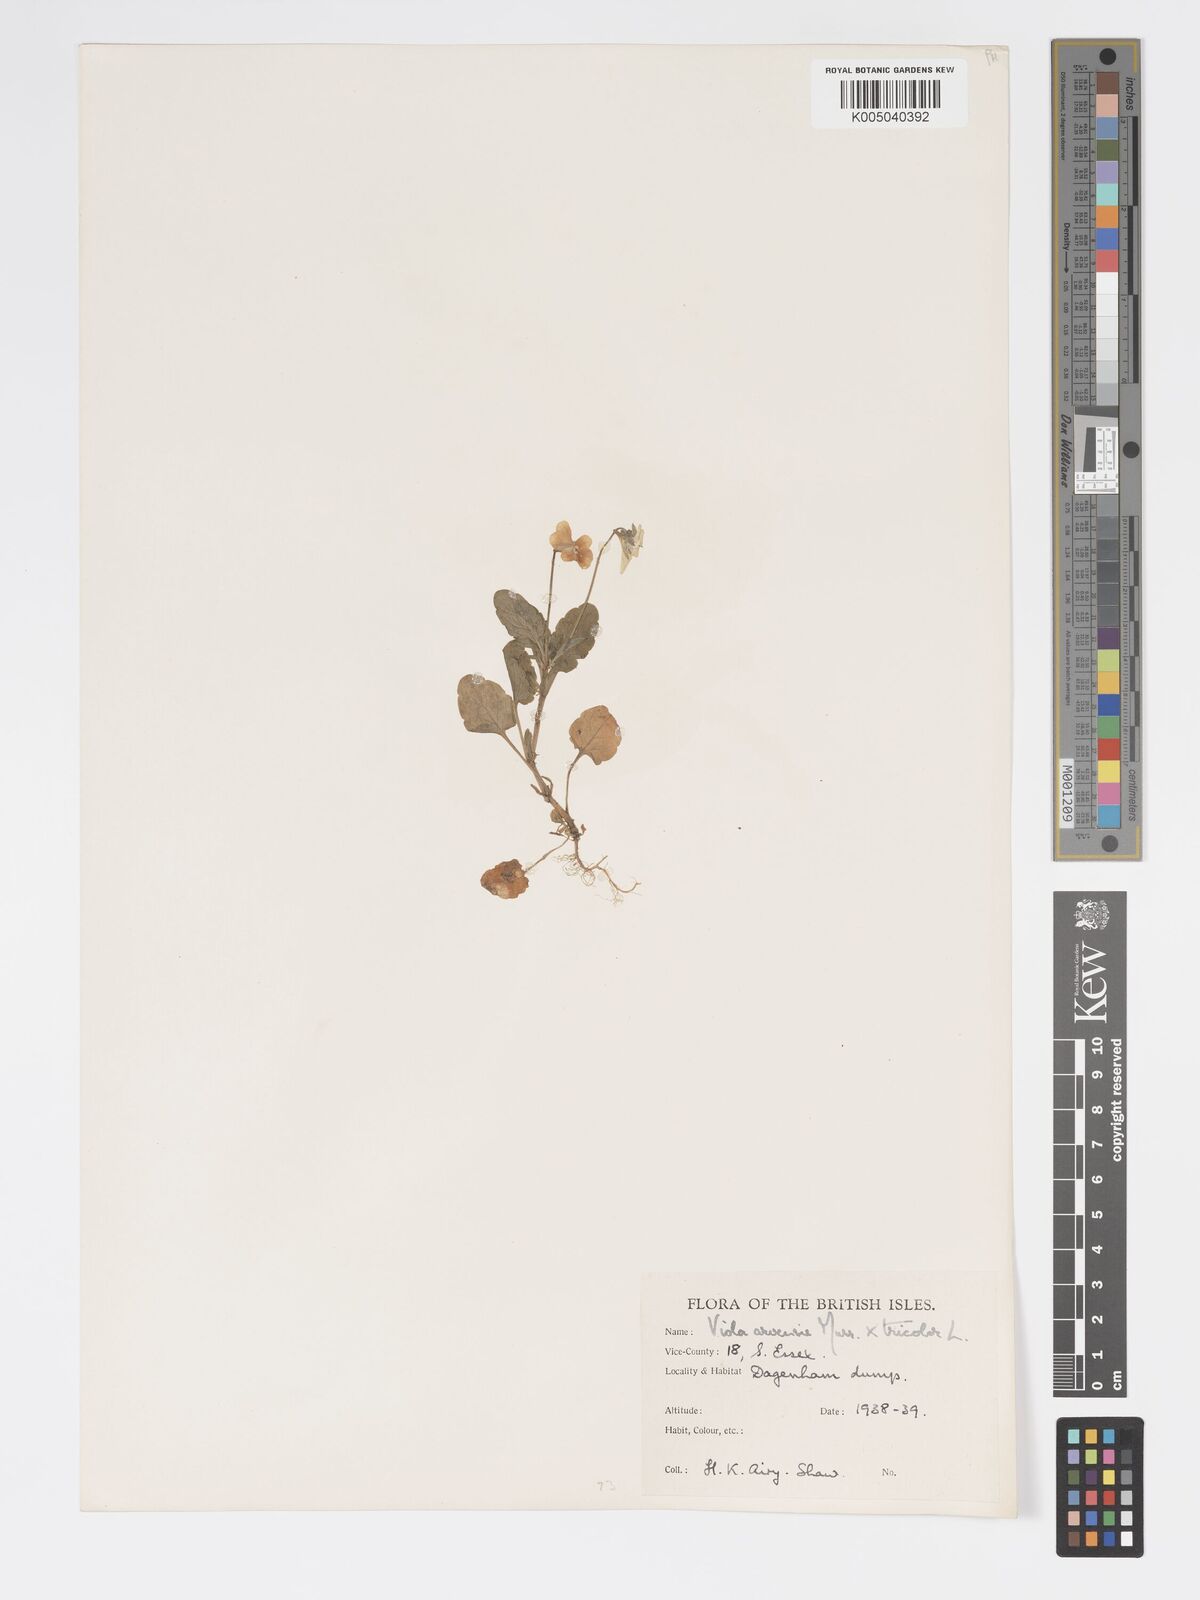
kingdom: Plantae
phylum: Tracheophyta
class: Magnoliopsida
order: Malpighiales
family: Violaceae
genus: Viola
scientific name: Viola arvensis
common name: Field pansy
